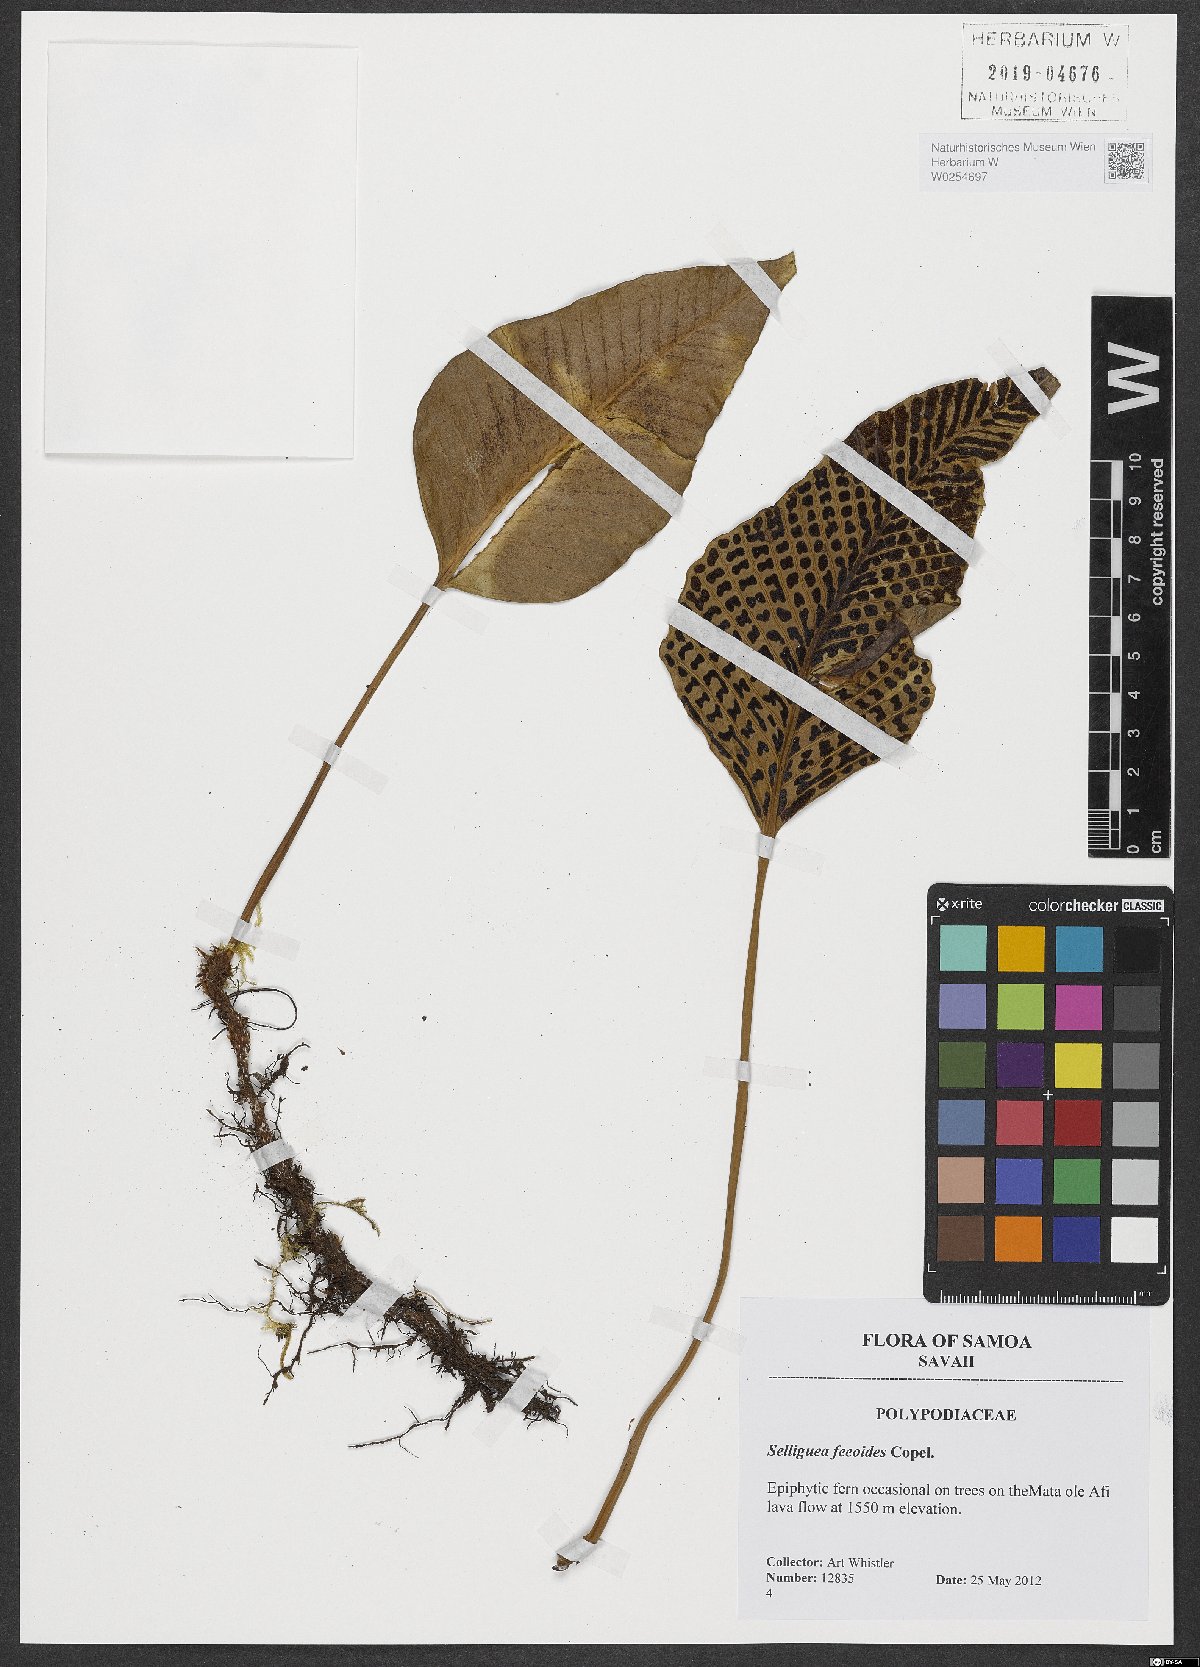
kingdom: Plantae
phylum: Tracheophyta
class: Polypodiopsida
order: Polypodiales
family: Polypodiaceae
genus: Selliguea
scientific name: Selliguea feeioides
